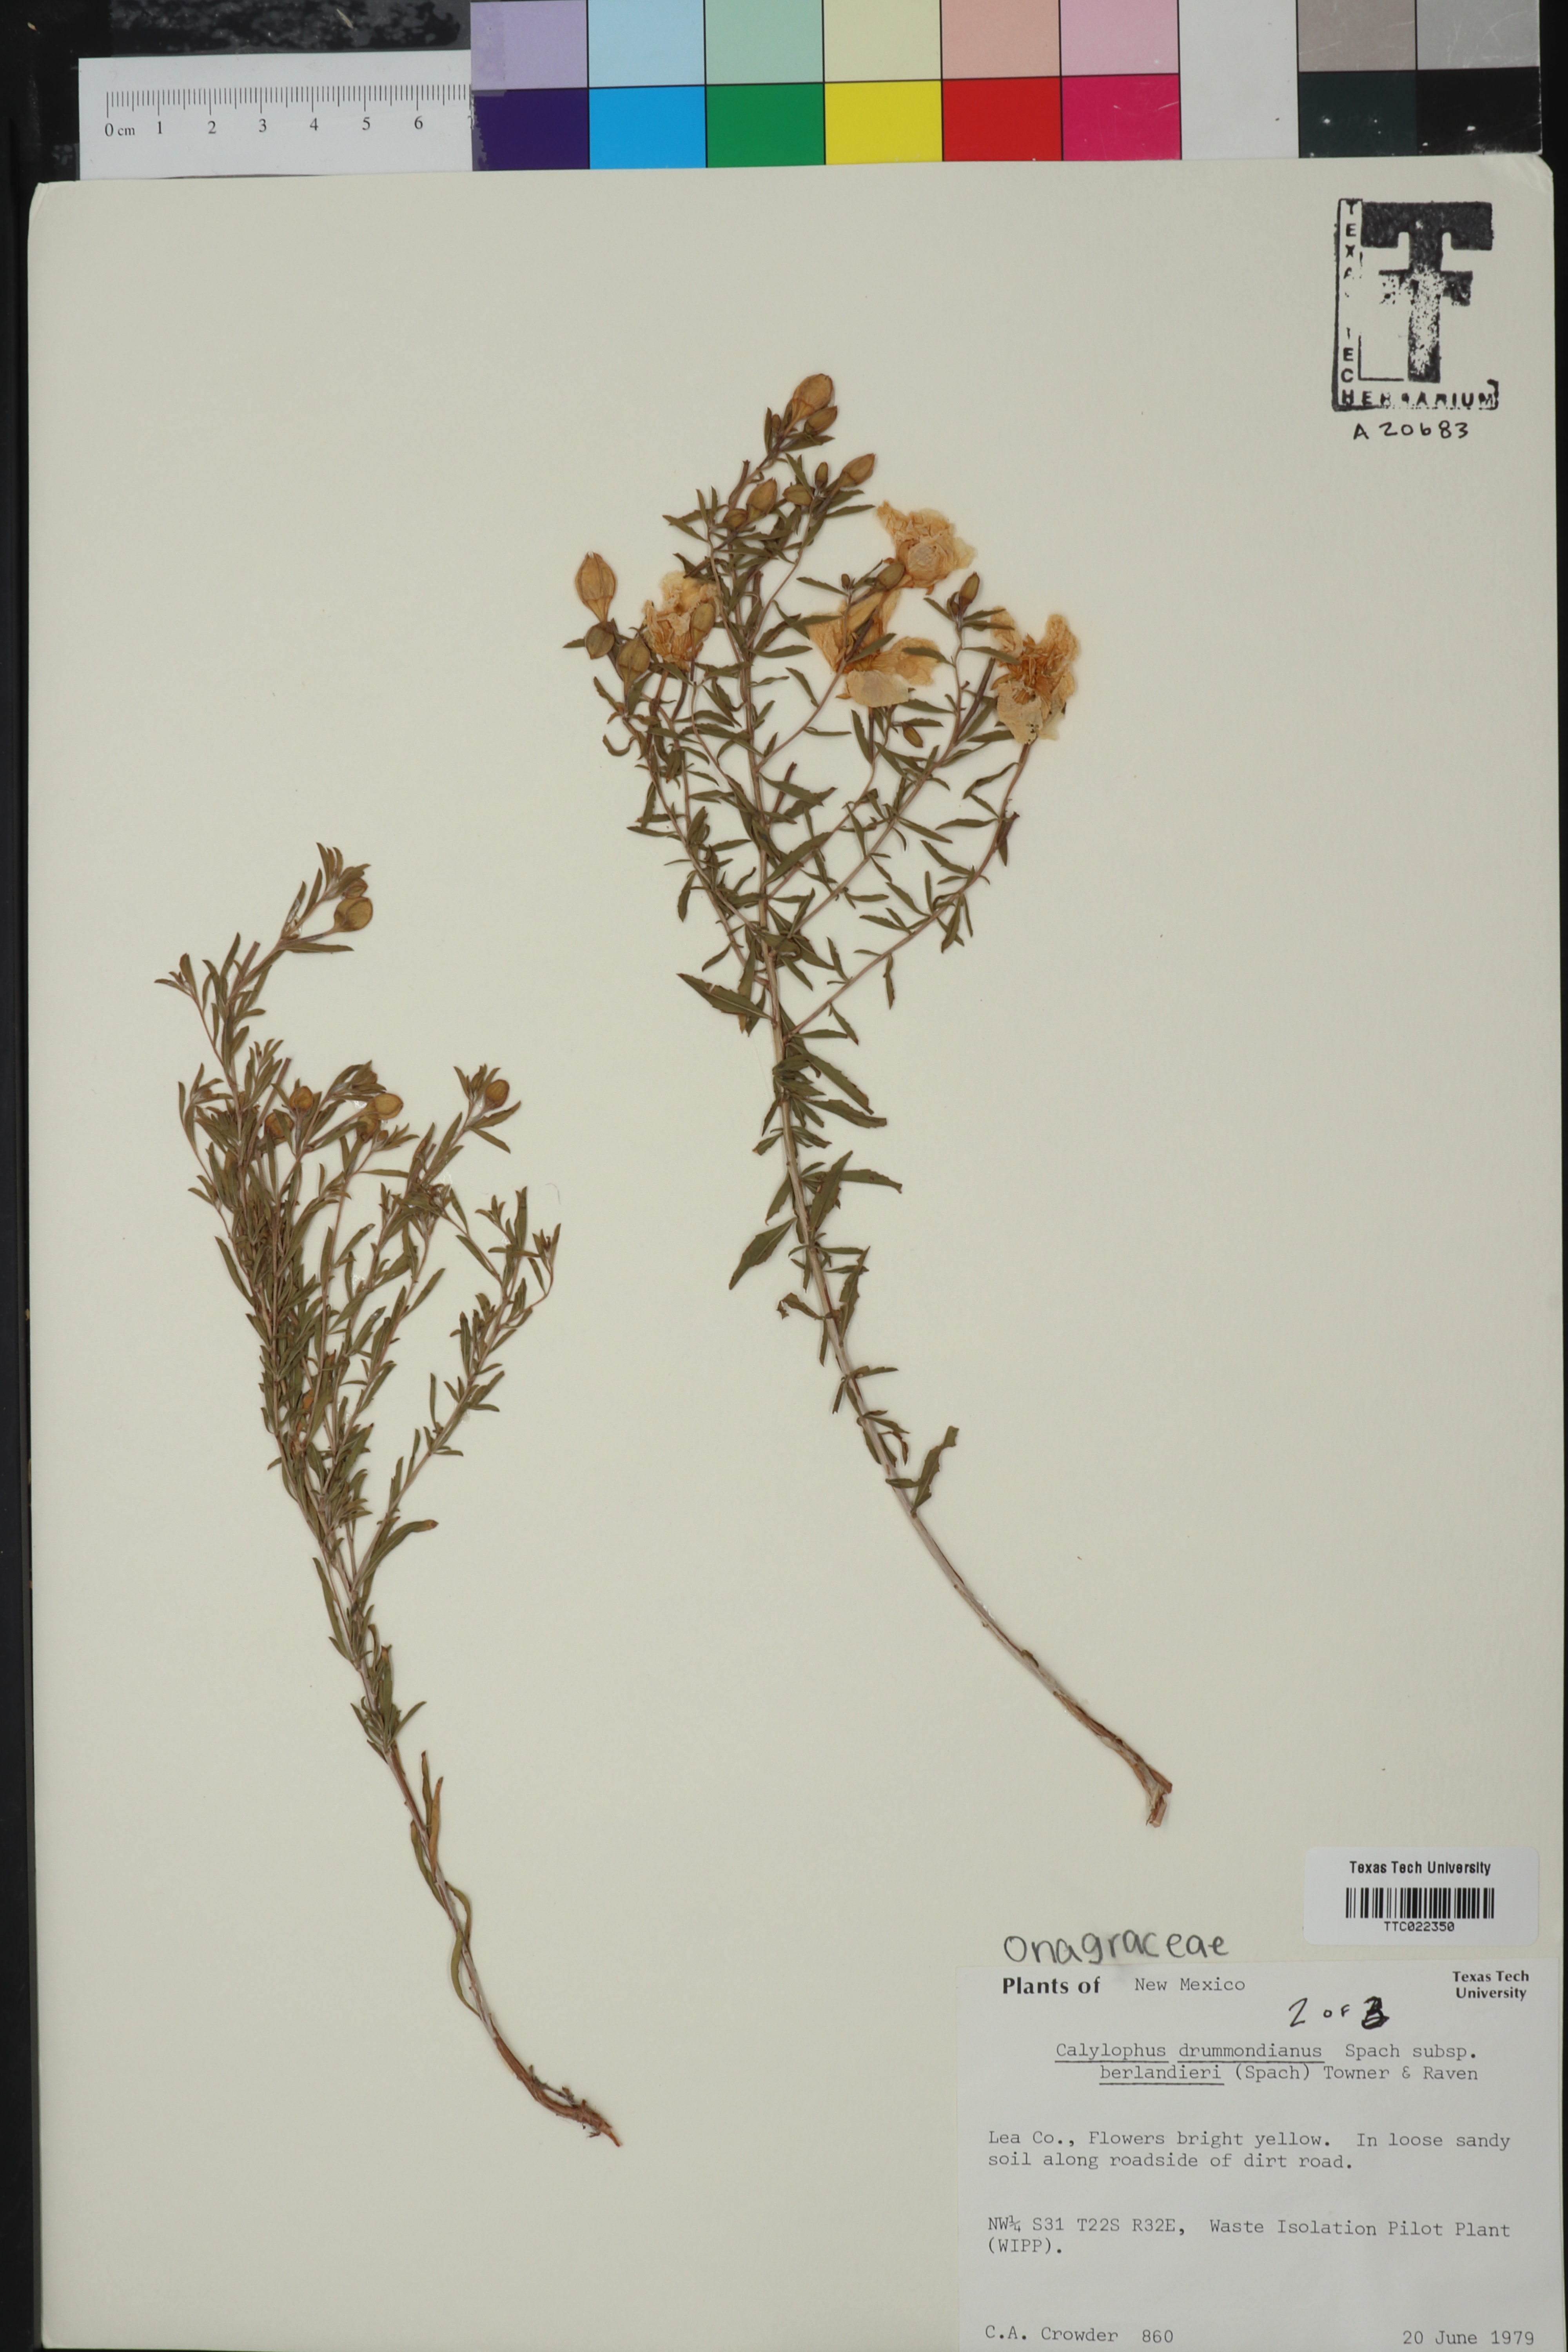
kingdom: Plantae
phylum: Tracheophyta
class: Magnoliopsida
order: Myrtales
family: Onagraceae
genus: Oenothera
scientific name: Oenothera capillifolia
